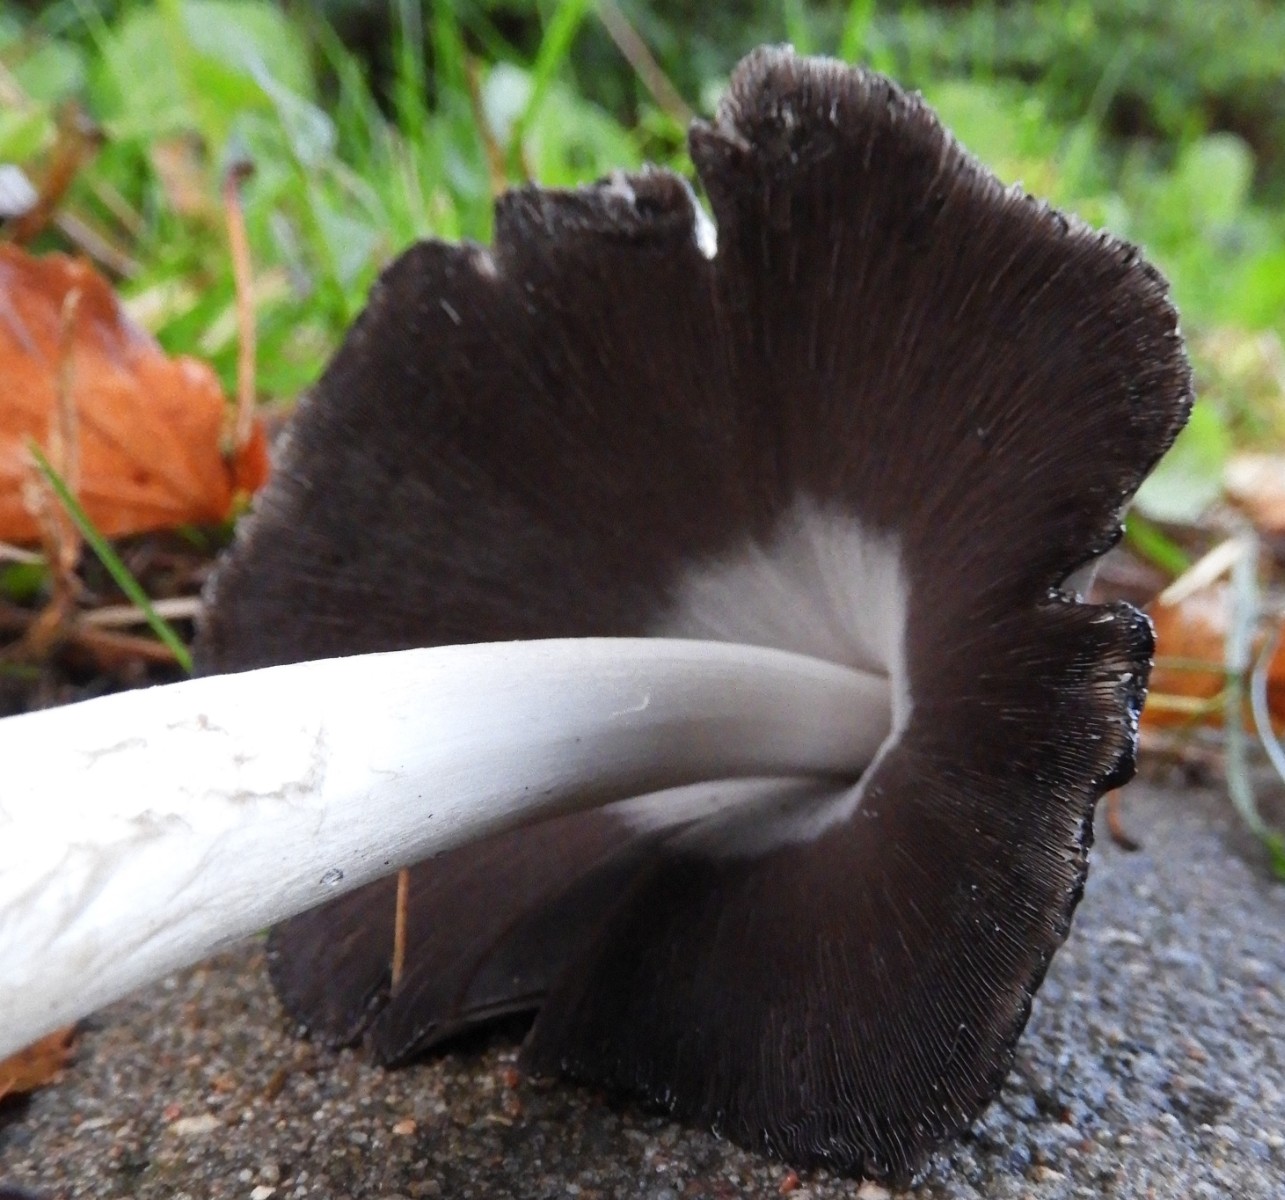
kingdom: Fungi
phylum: Basidiomycota
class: Agaricomycetes
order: Agaricales
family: Psathyrellaceae
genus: Coprinopsis
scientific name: Coprinopsis atramentaria
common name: almindelig blækhat
